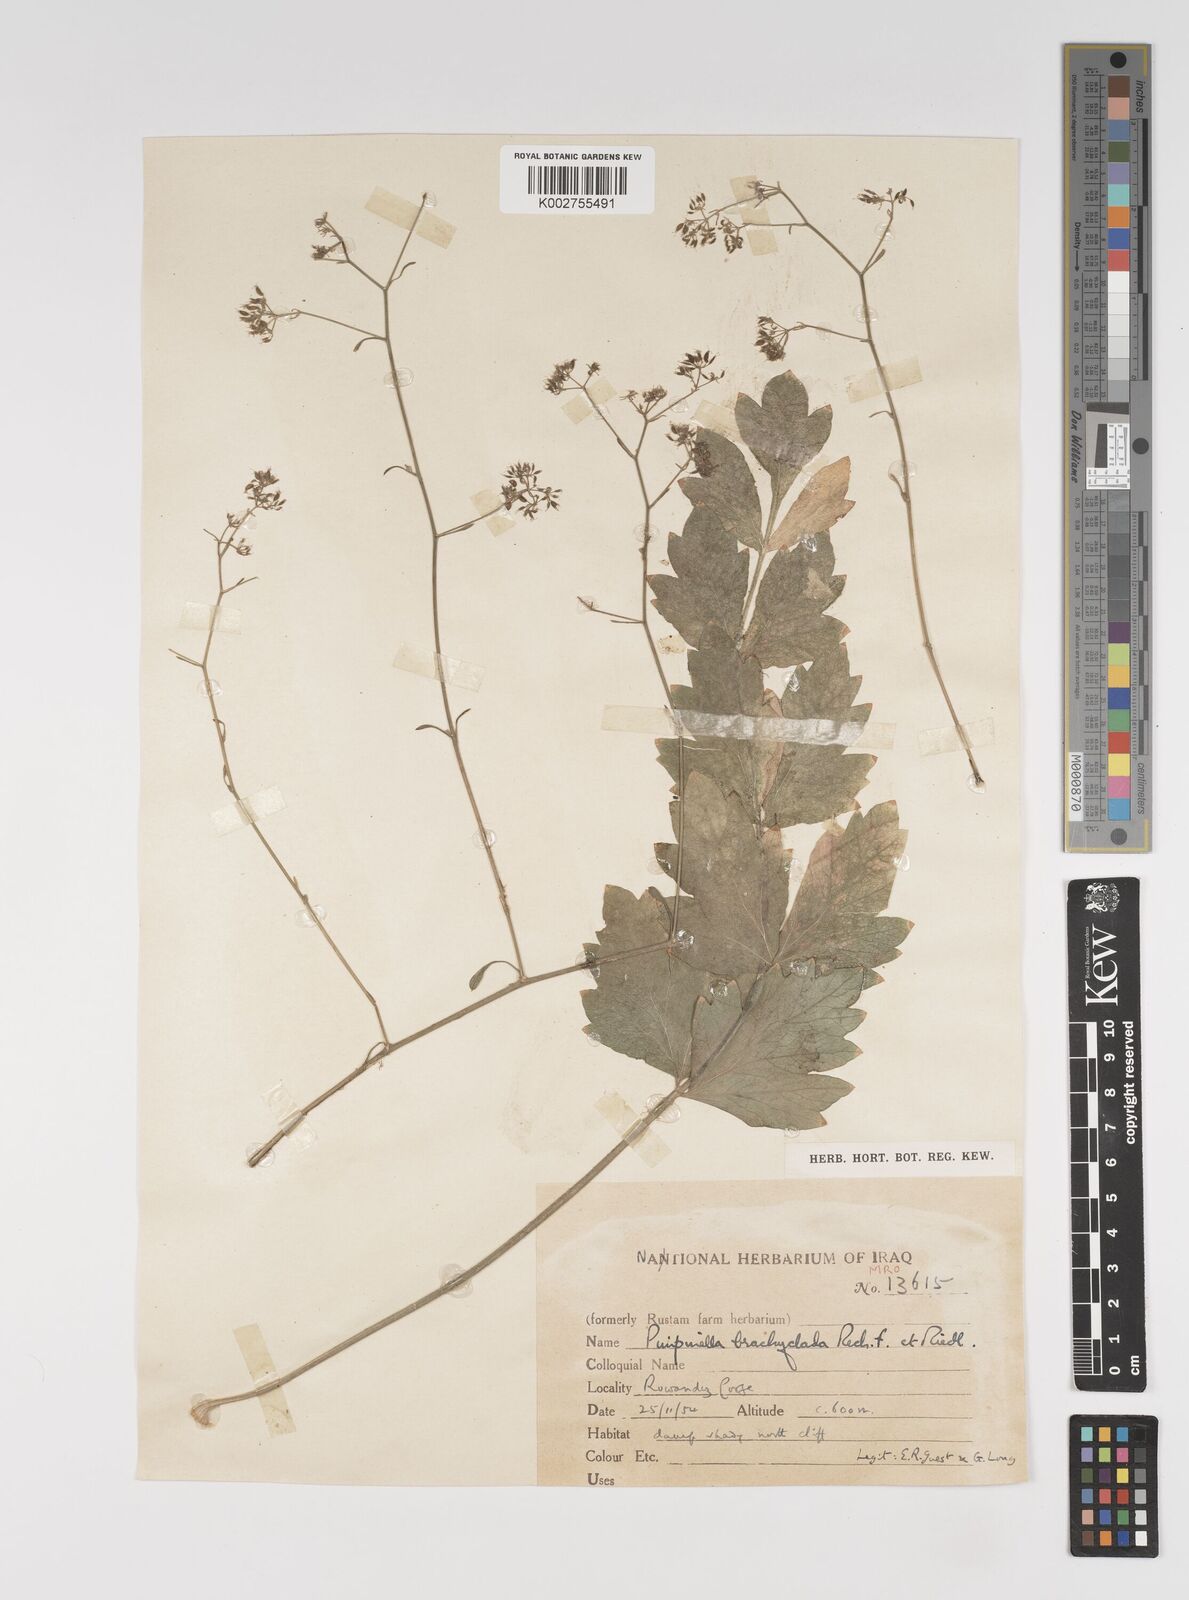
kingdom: Plantae
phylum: Tracheophyta
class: Magnoliopsida
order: Apiales
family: Apiaceae
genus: Pimpinella
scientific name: Pimpinella brachyclada
